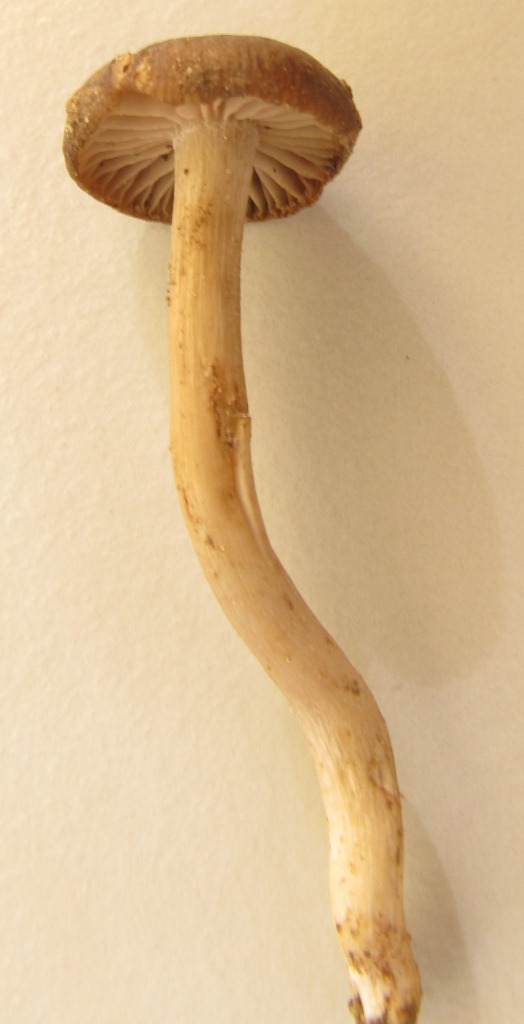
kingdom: Fungi
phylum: Basidiomycota
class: Agaricomycetes
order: Agaricales
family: Entolomataceae
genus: Entoloma
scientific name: Entoloma
